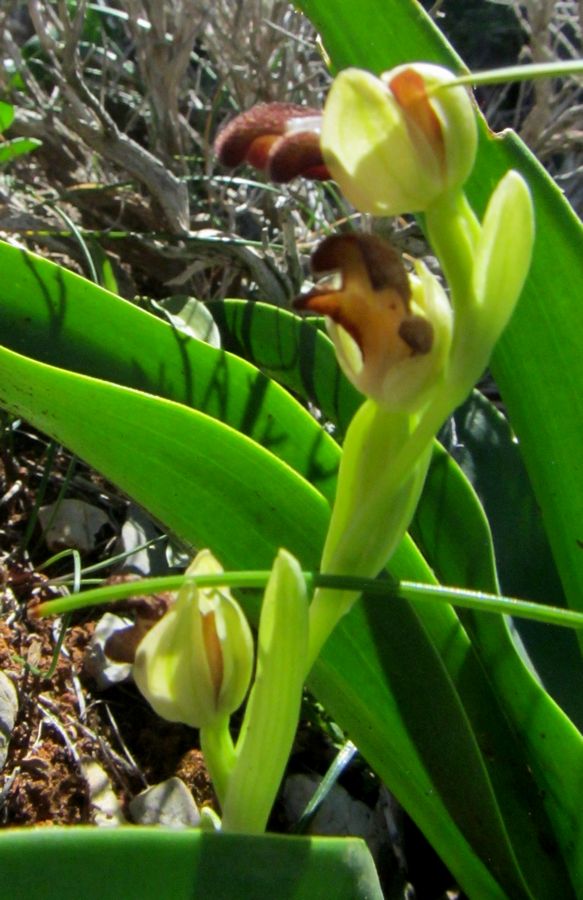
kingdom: Plantae
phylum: Tracheophyta
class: Liliopsida
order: Asparagales
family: Orchidaceae
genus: Ophrys
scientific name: Ophrys omegaifera
